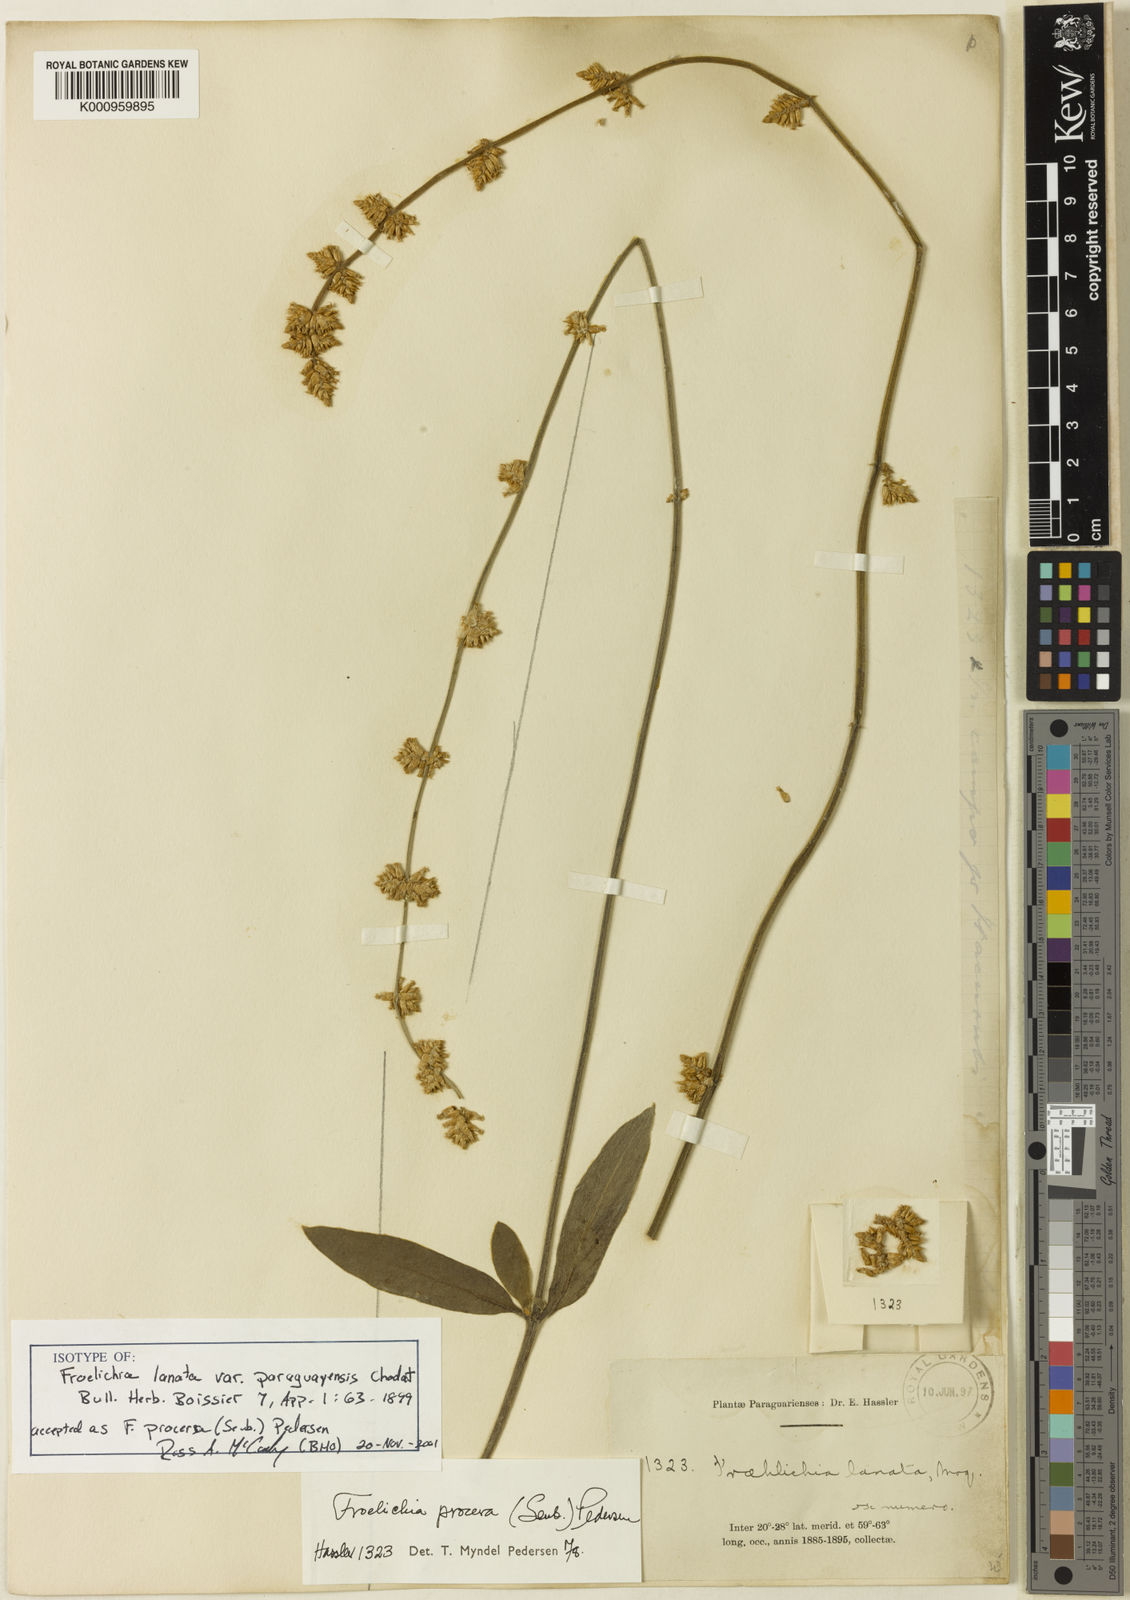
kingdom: Plantae
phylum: Tracheophyta
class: Magnoliopsida
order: Caryophyllales
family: Amaranthaceae
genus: Froelichia
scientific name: Froelichia
